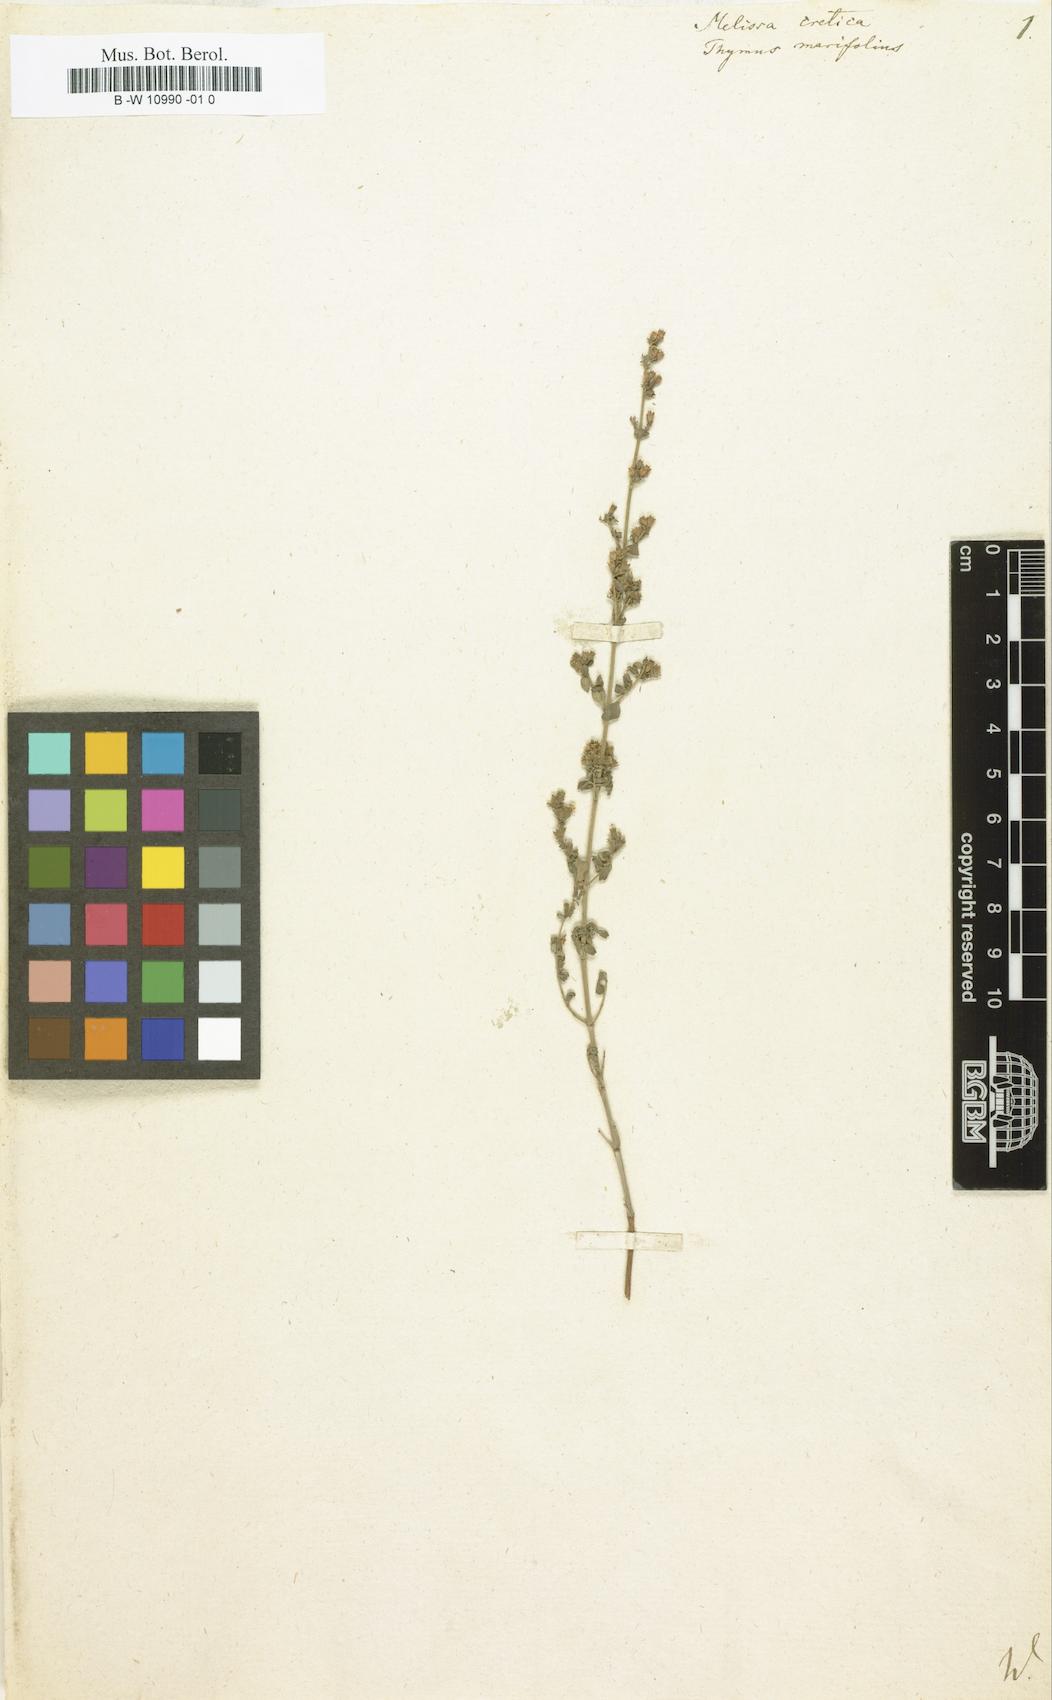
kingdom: Plantae
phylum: Tracheophyta
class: Magnoliopsida
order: Lamiales
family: Lamiaceae
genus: Clinopodium
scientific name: Clinopodium creticum
